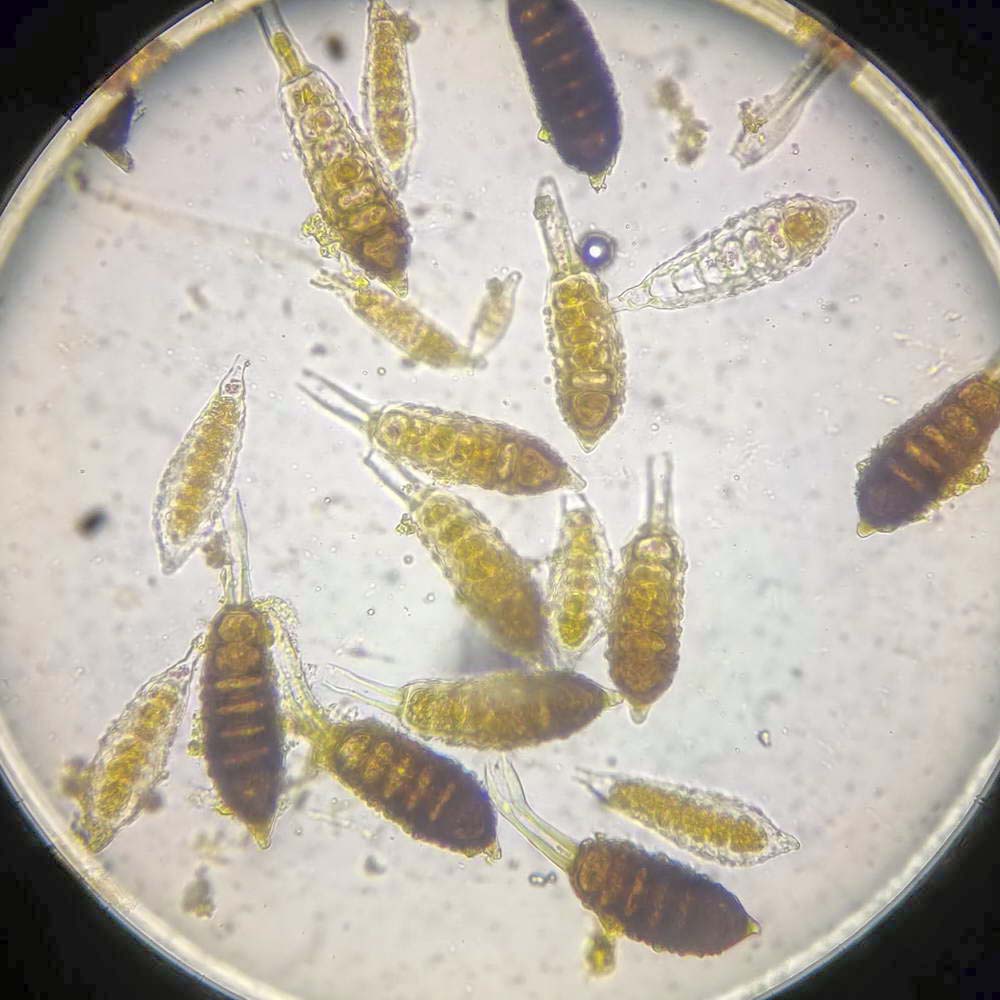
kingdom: Fungi
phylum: Basidiomycota
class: Pucciniomycetes
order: Pucciniales
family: Phragmidiaceae
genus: Phragmidium
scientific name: Phragmidium mucronatum
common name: rose-flercellerust
